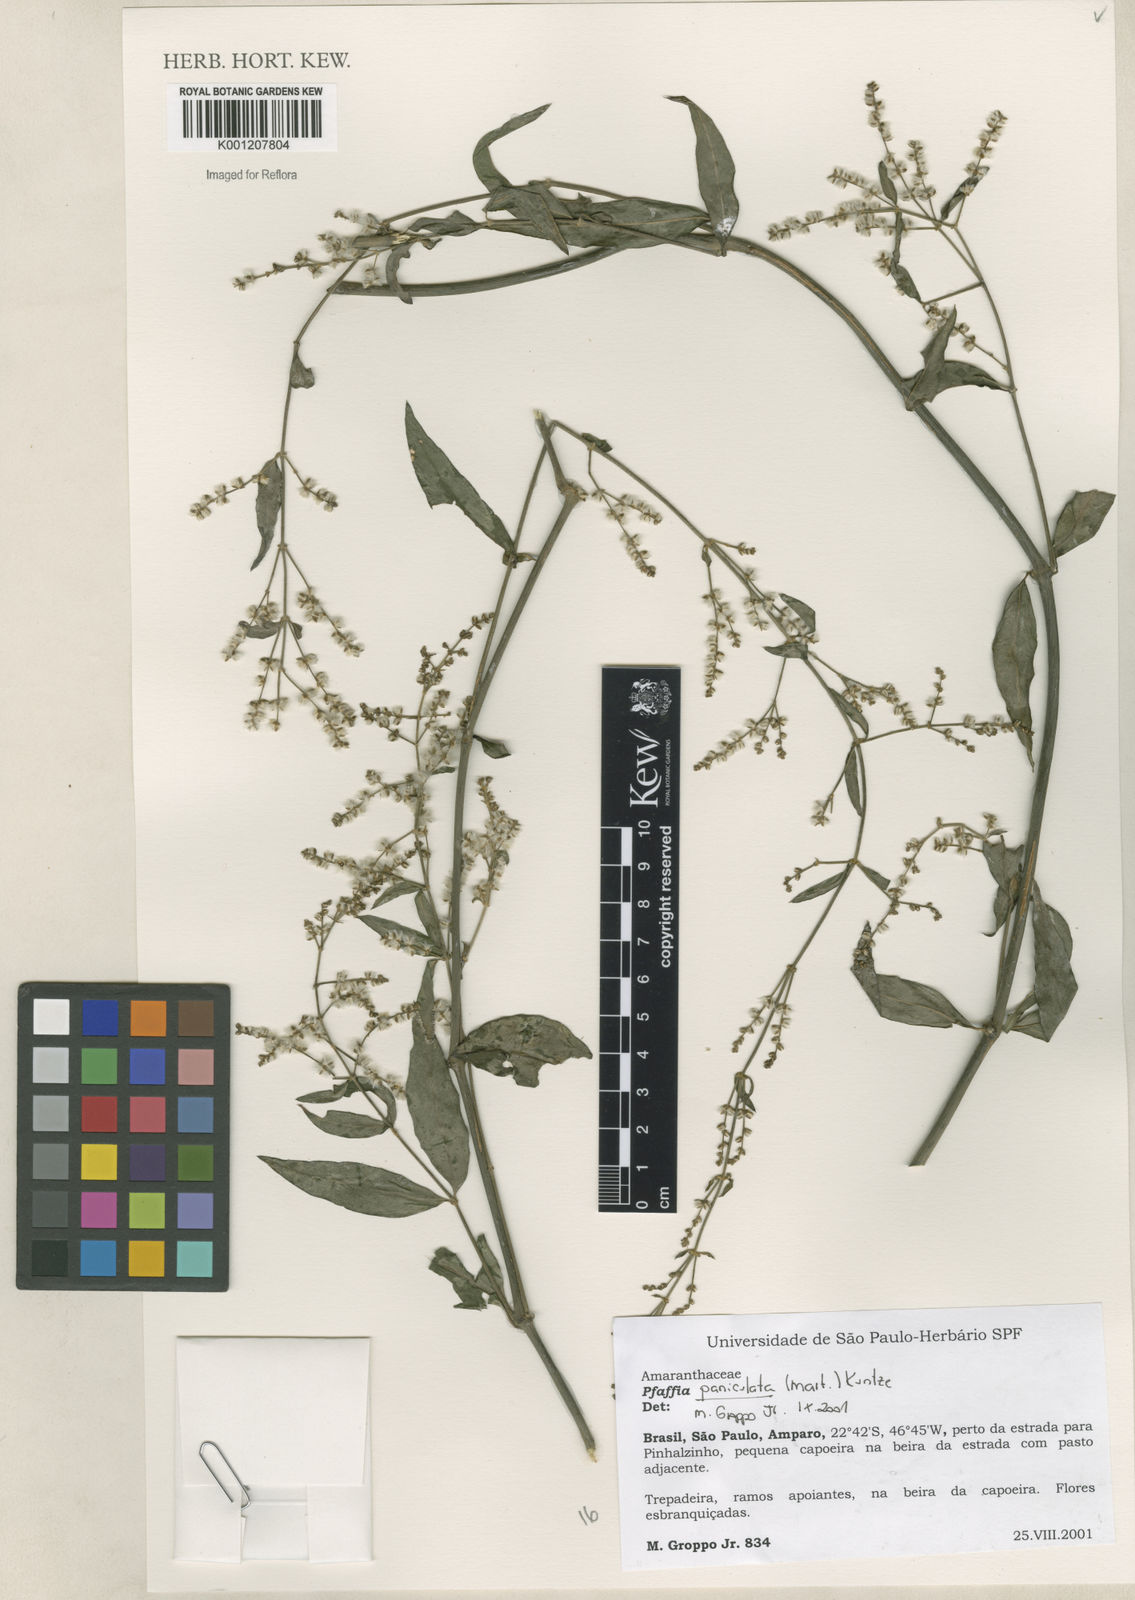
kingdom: Plantae
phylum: Tracheophyta
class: Magnoliopsida
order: Caryophyllales
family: Amaranthaceae
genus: Hebanthe
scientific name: Hebanthe erianthos
